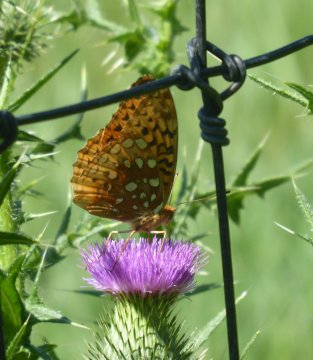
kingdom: Animalia
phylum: Arthropoda
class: Insecta
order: Lepidoptera
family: Nymphalidae
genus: Speyeria
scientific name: Speyeria cybele
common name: Great Spangled Fritillary
